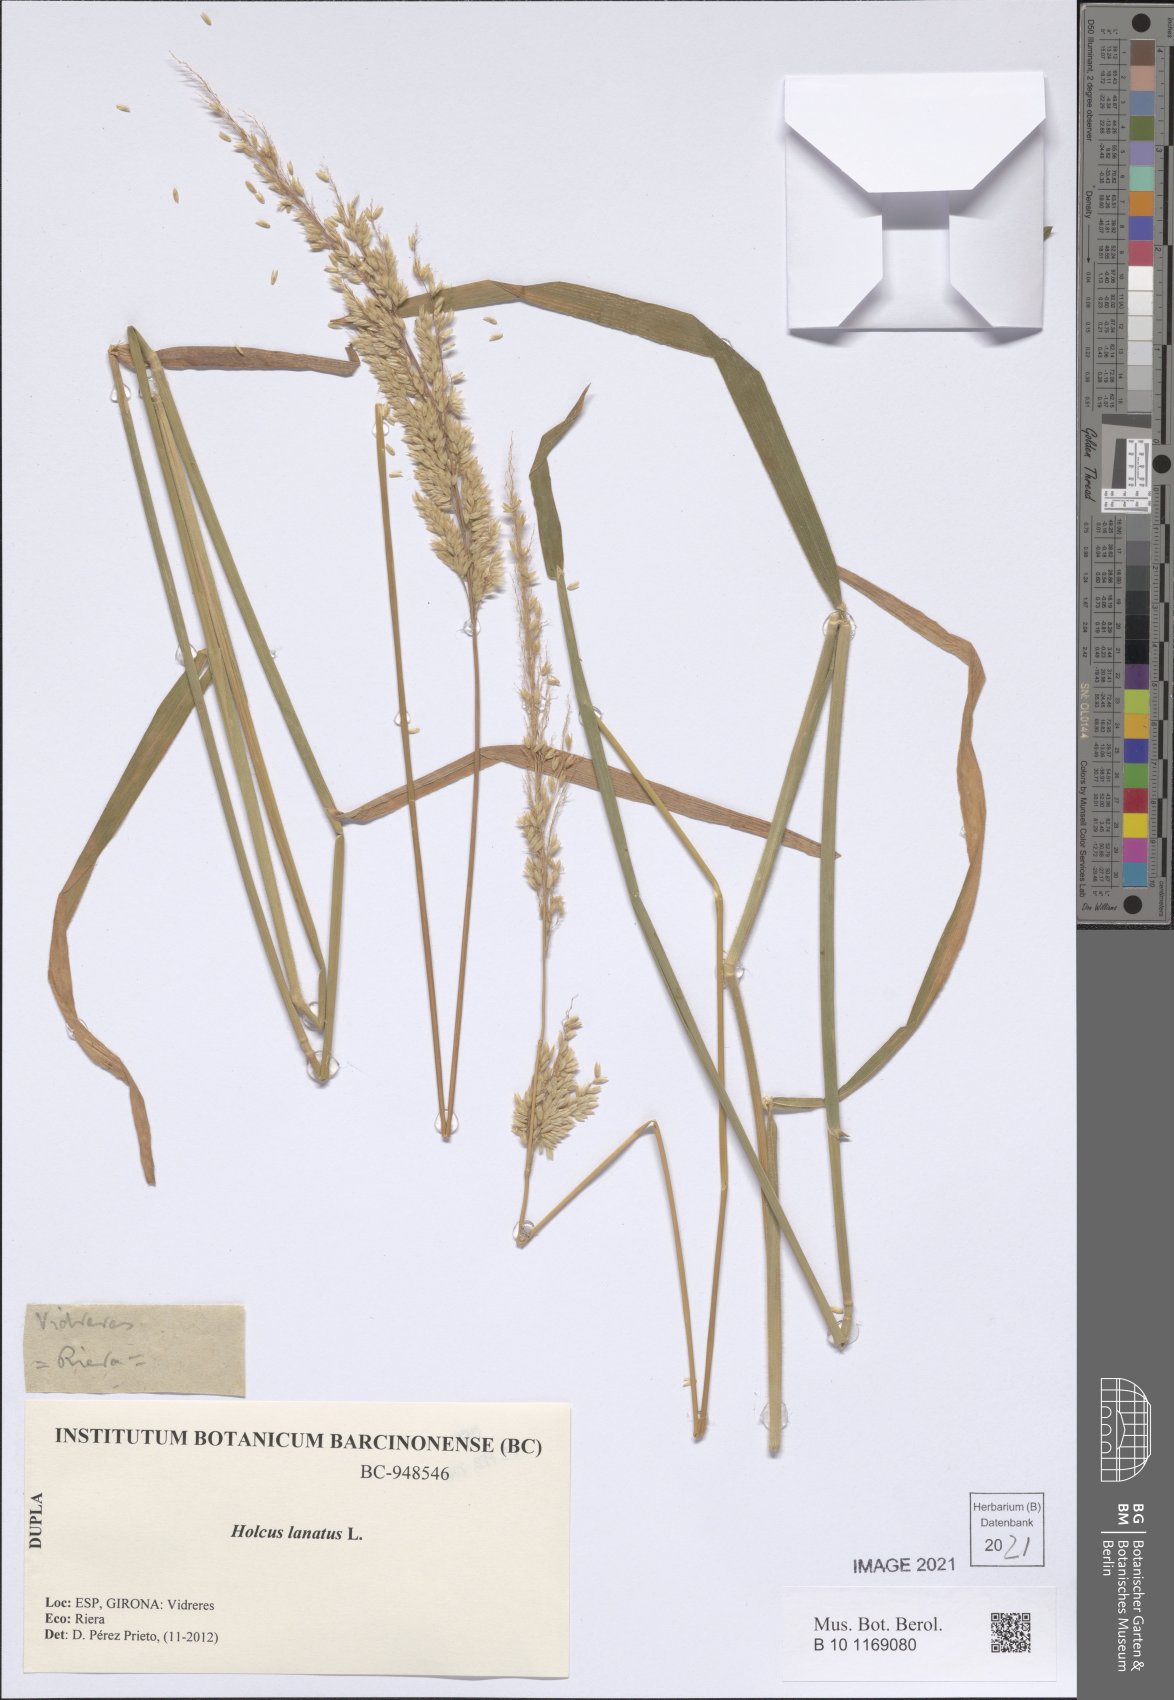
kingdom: Plantae
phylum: Tracheophyta
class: Liliopsida
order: Poales
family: Poaceae
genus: Holcus
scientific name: Holcus lanatus
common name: Yorkshire-fog
